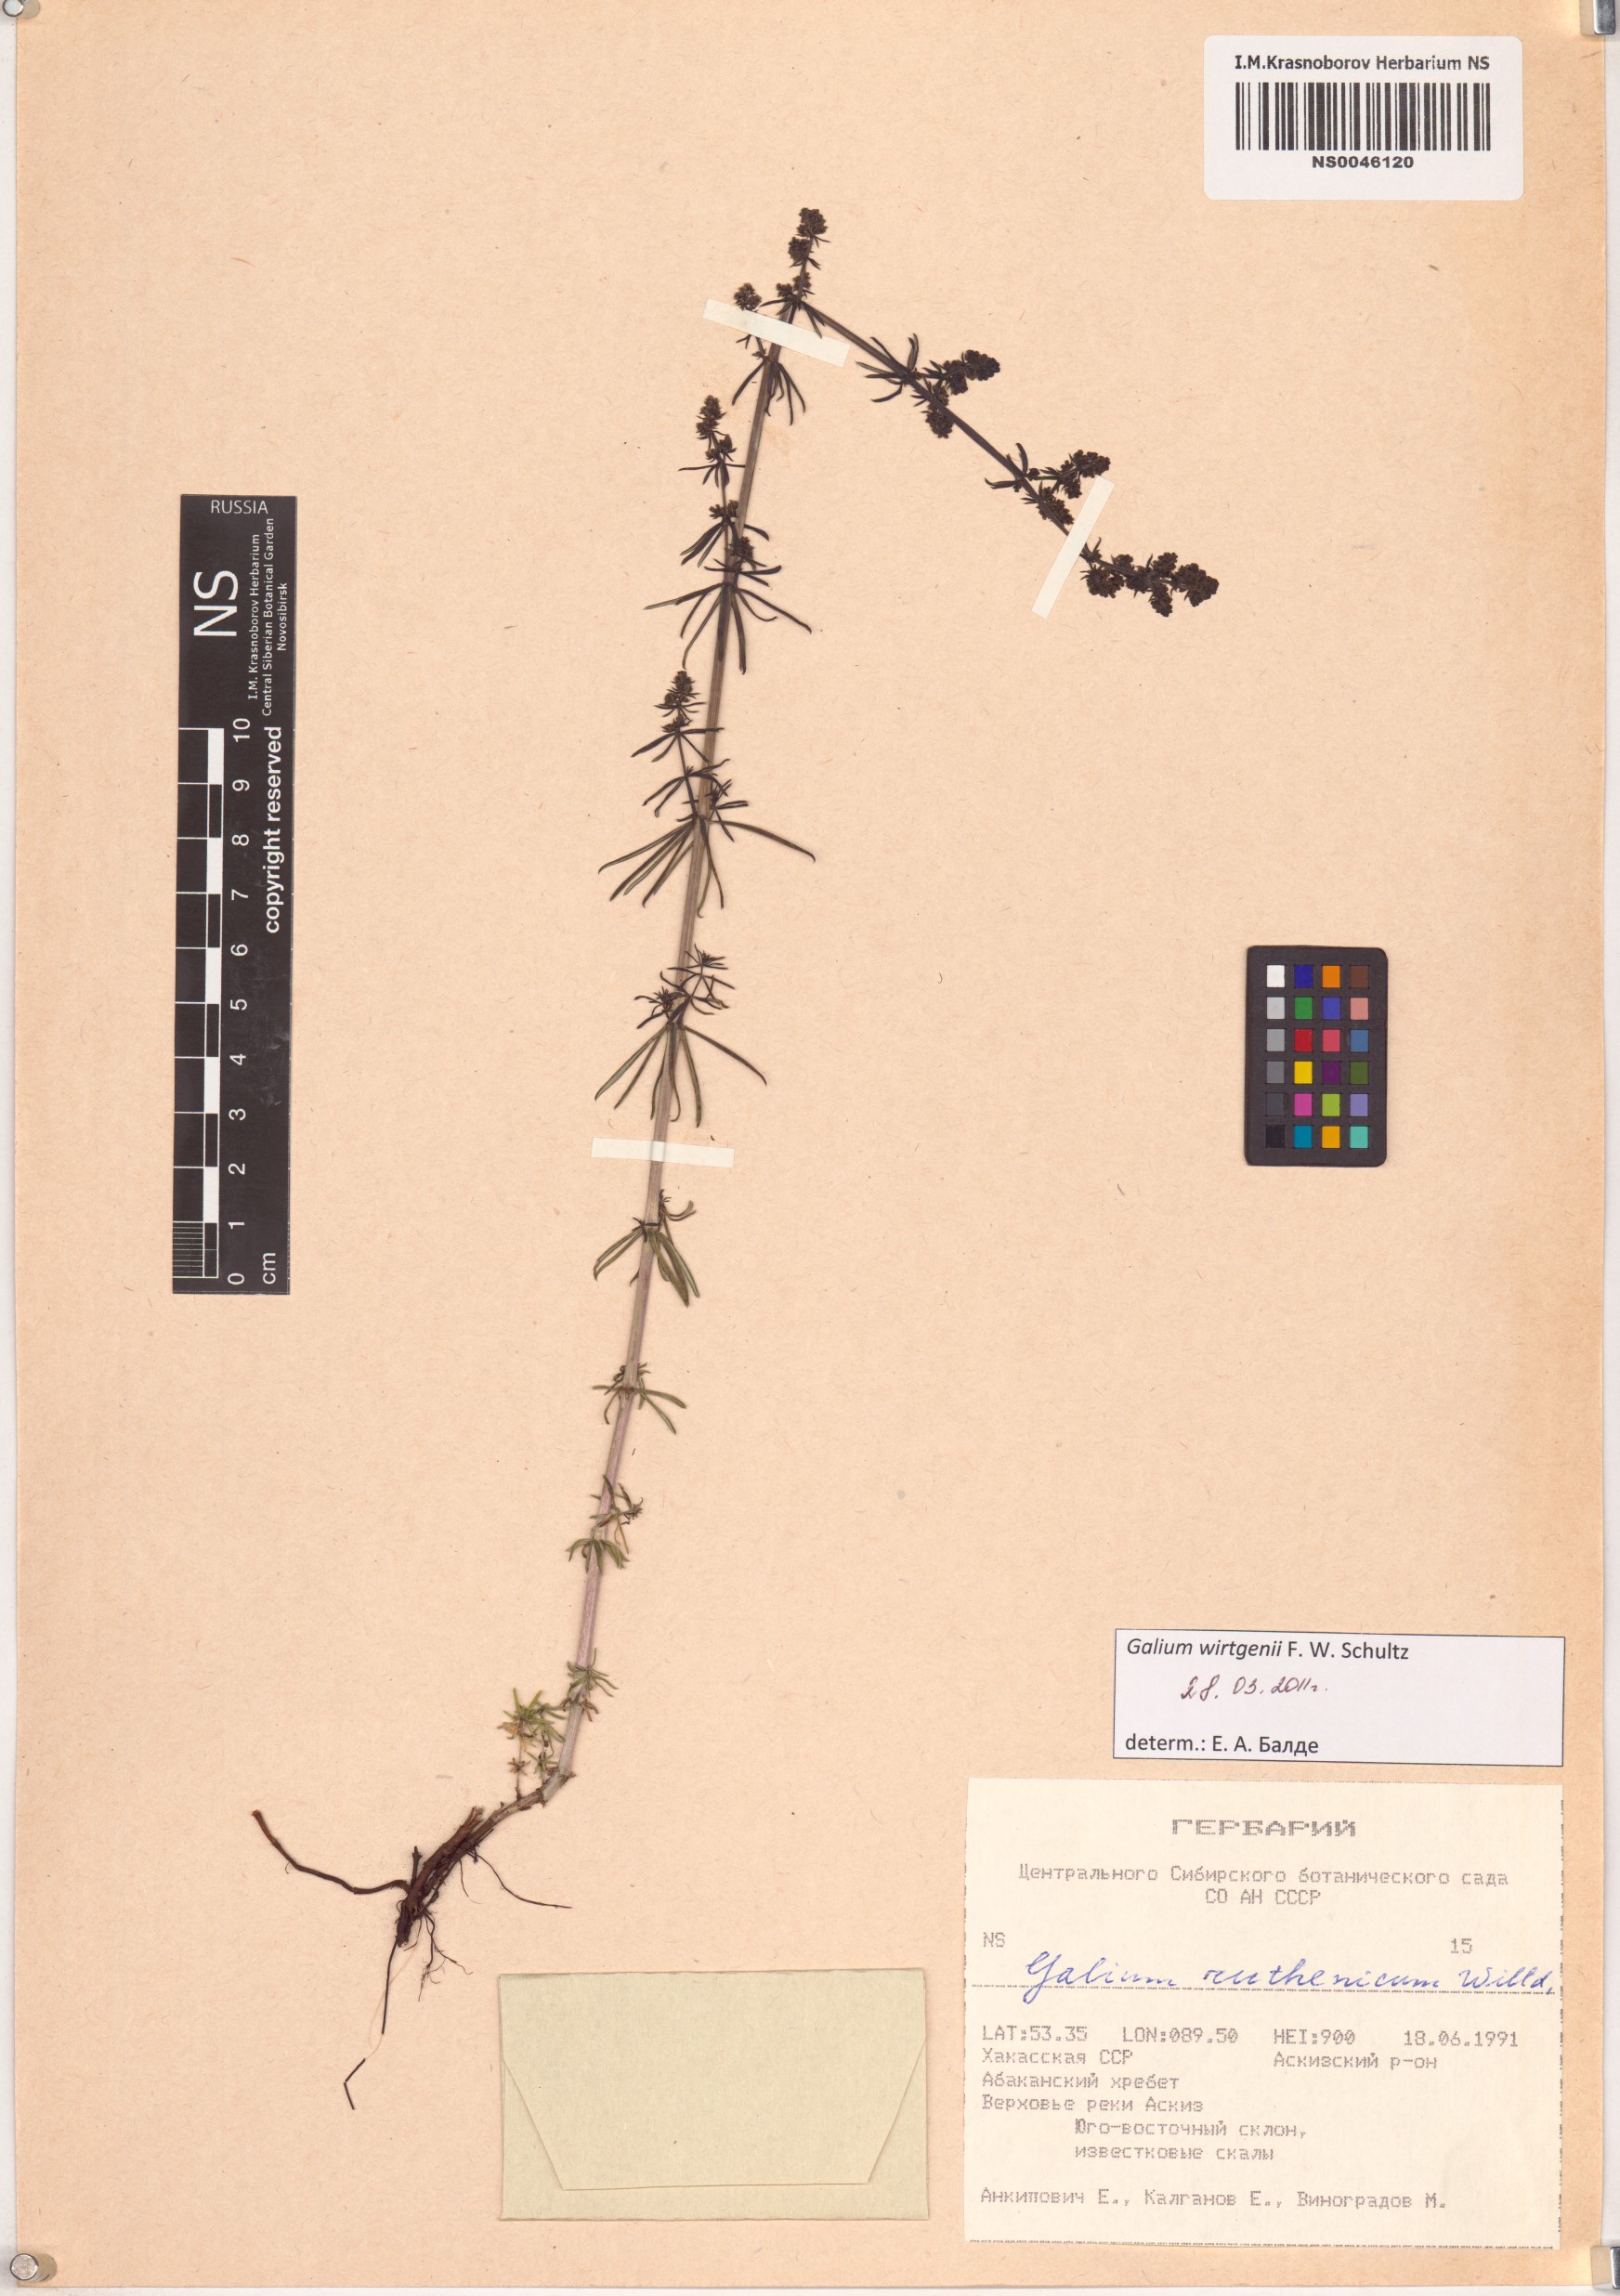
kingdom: Plantae
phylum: Tracheophyta
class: Magnoliopsida
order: Gentianales
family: Rubiaceae
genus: Galium
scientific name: Galium verum
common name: Lady's bedstraw
